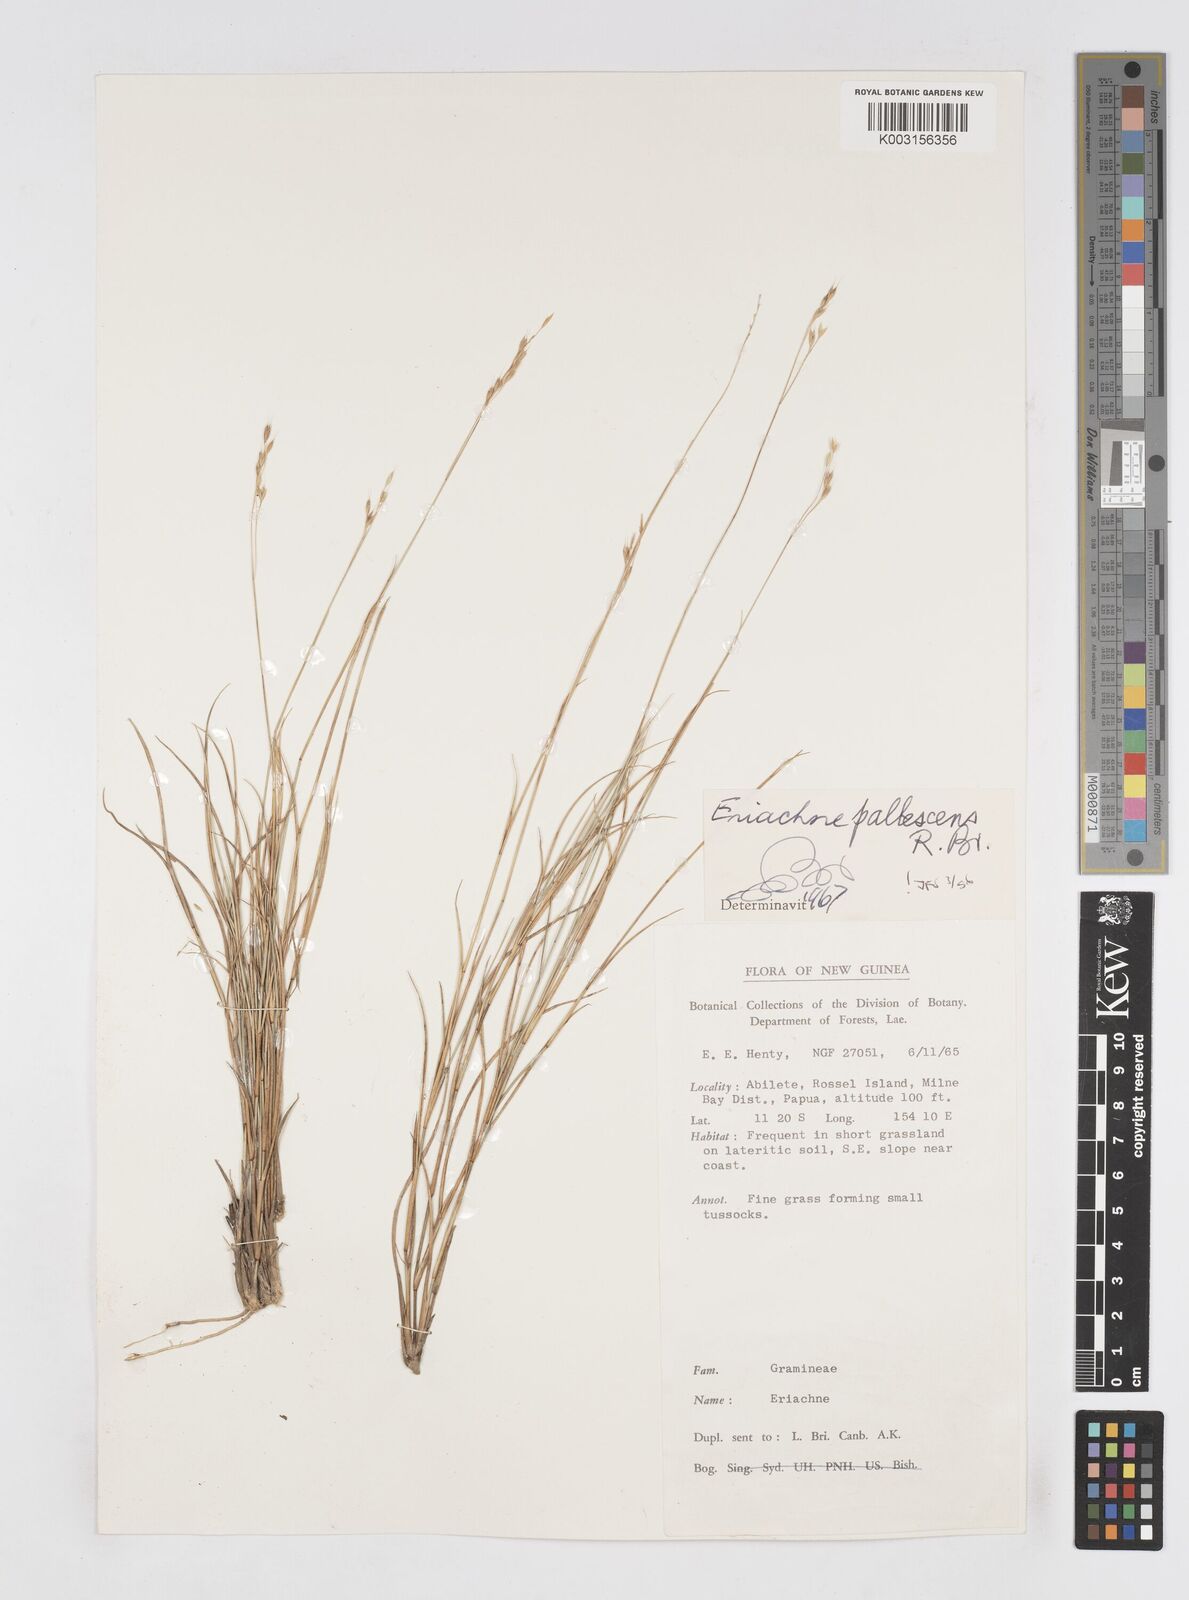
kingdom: Plantae
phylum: Tracheophyta
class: Liliopsida
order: Poales
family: Poaceae
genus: Eriachne
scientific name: Eriachne pallescens
